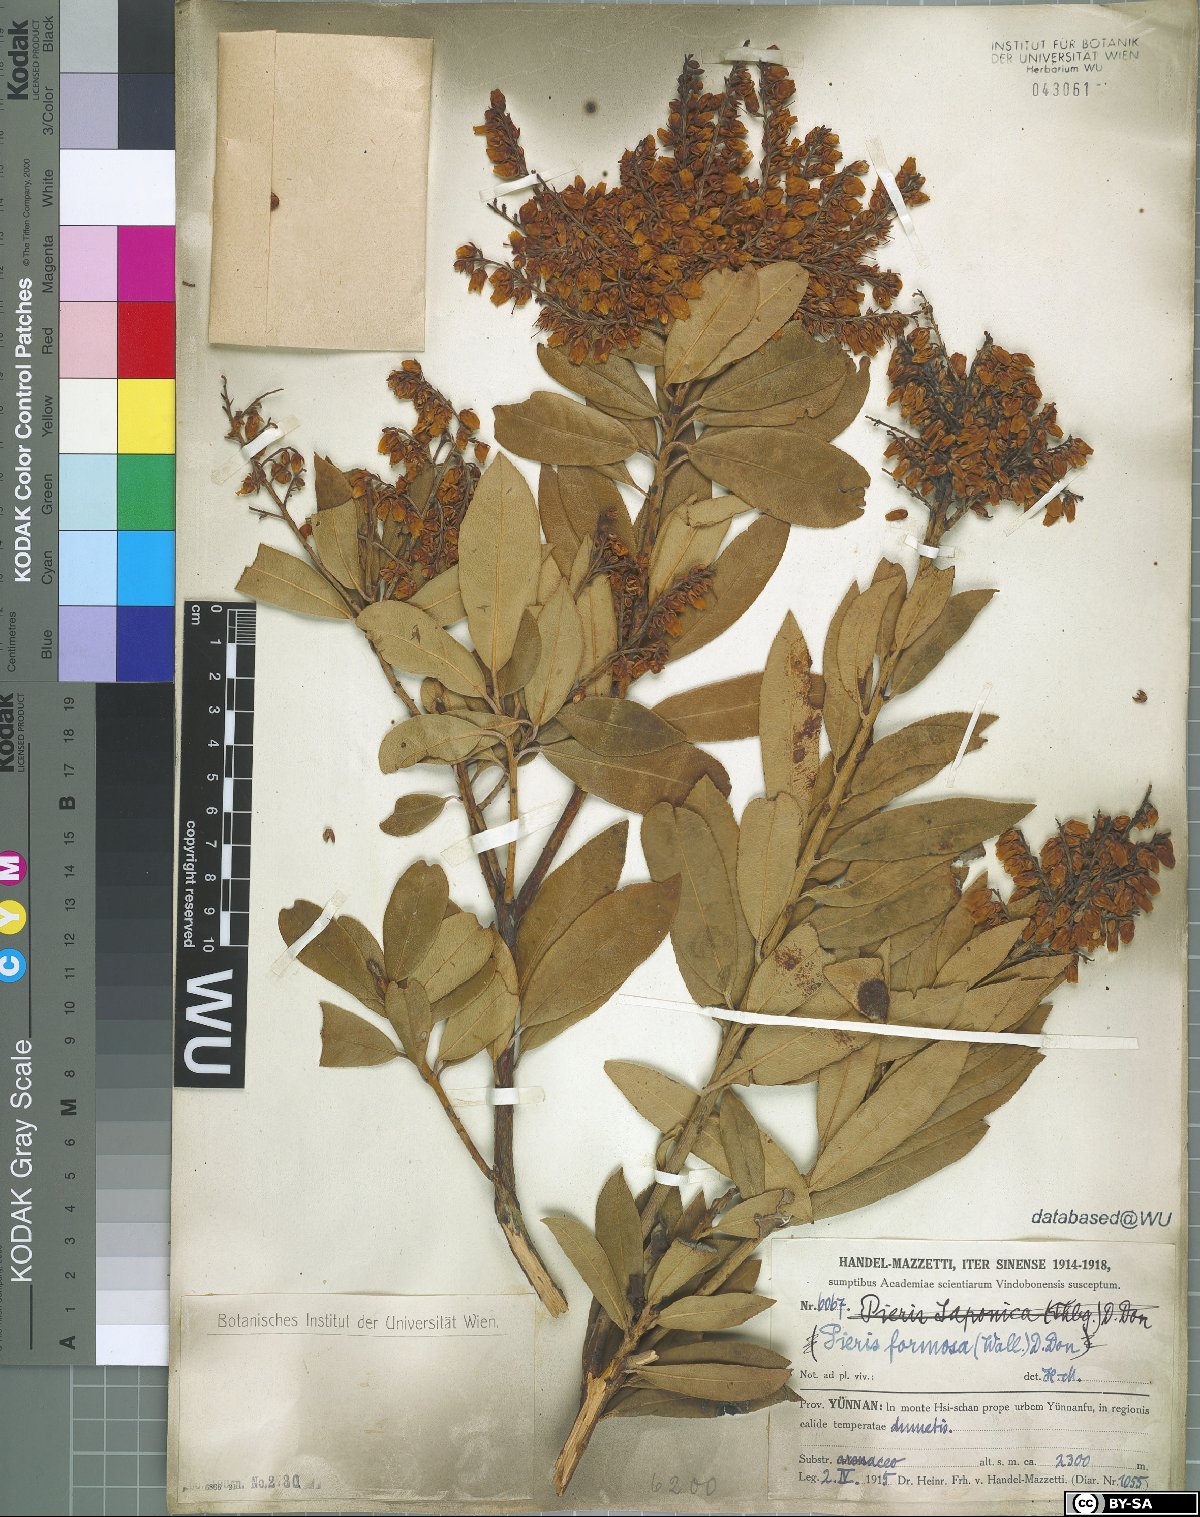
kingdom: Plantae
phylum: Tracheophyta
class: Magnoliopsida
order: Ericales
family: Ericaceae
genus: Pieris
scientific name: Pieris formosa
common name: Formosan pieris
